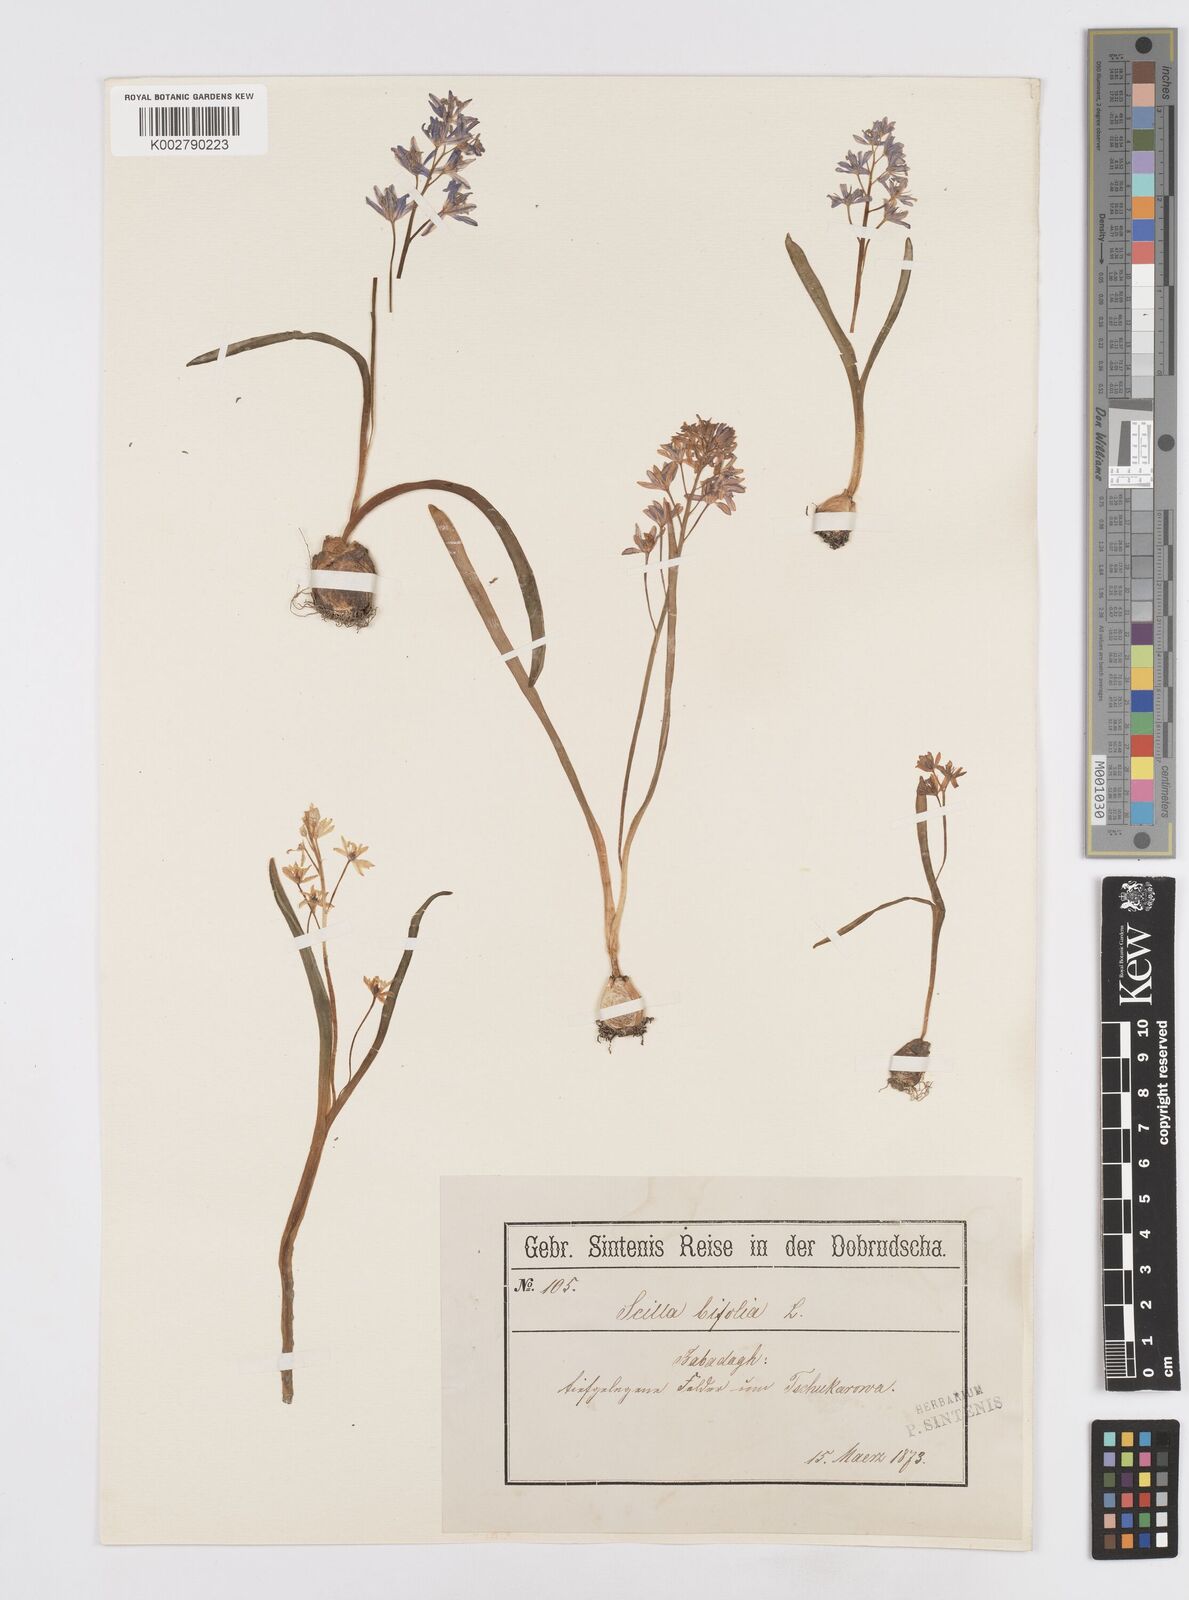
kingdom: Plantae
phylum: Tracheophyta
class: Liliopsida
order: Asparagales
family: Asparagaceae
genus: Scilla
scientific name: Scilla bifolia
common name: Alpine squill
